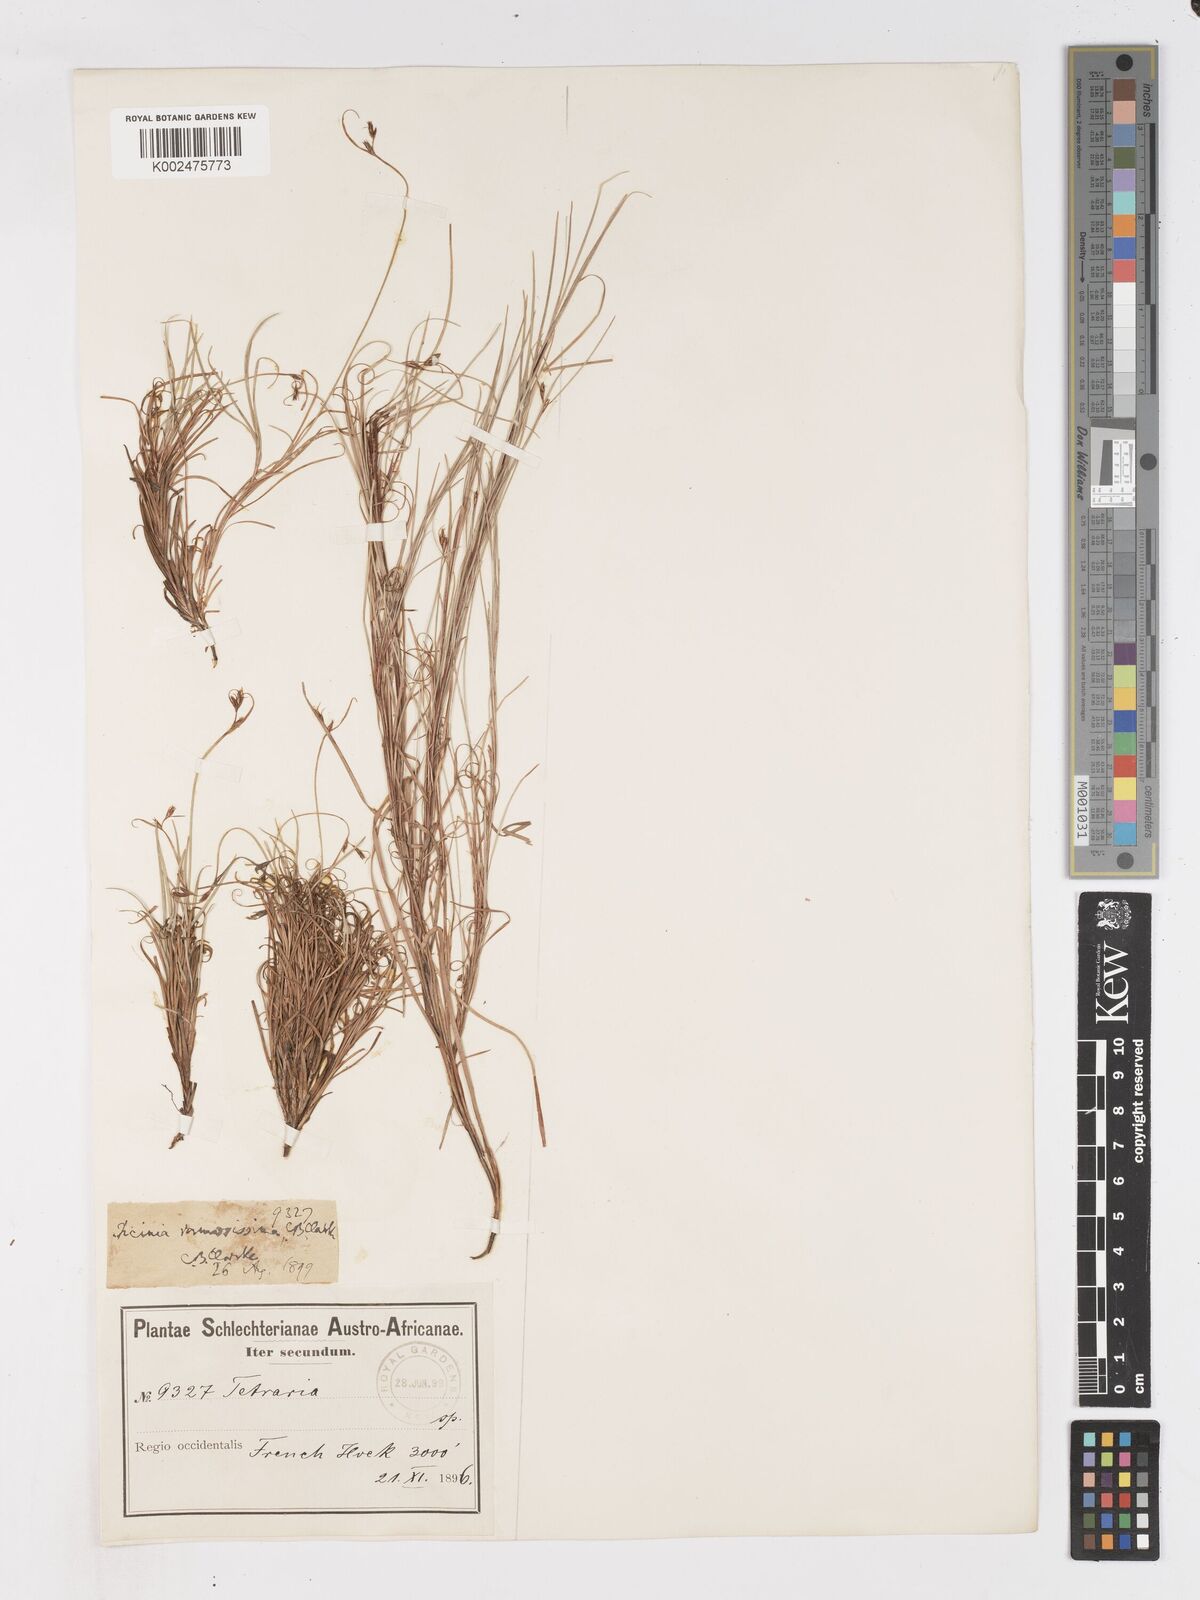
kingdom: Plantae
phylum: Tracheophyta
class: Liliopsida
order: Poales
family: Cyperaceae
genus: Ficinia
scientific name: Ficinia ramosissima
